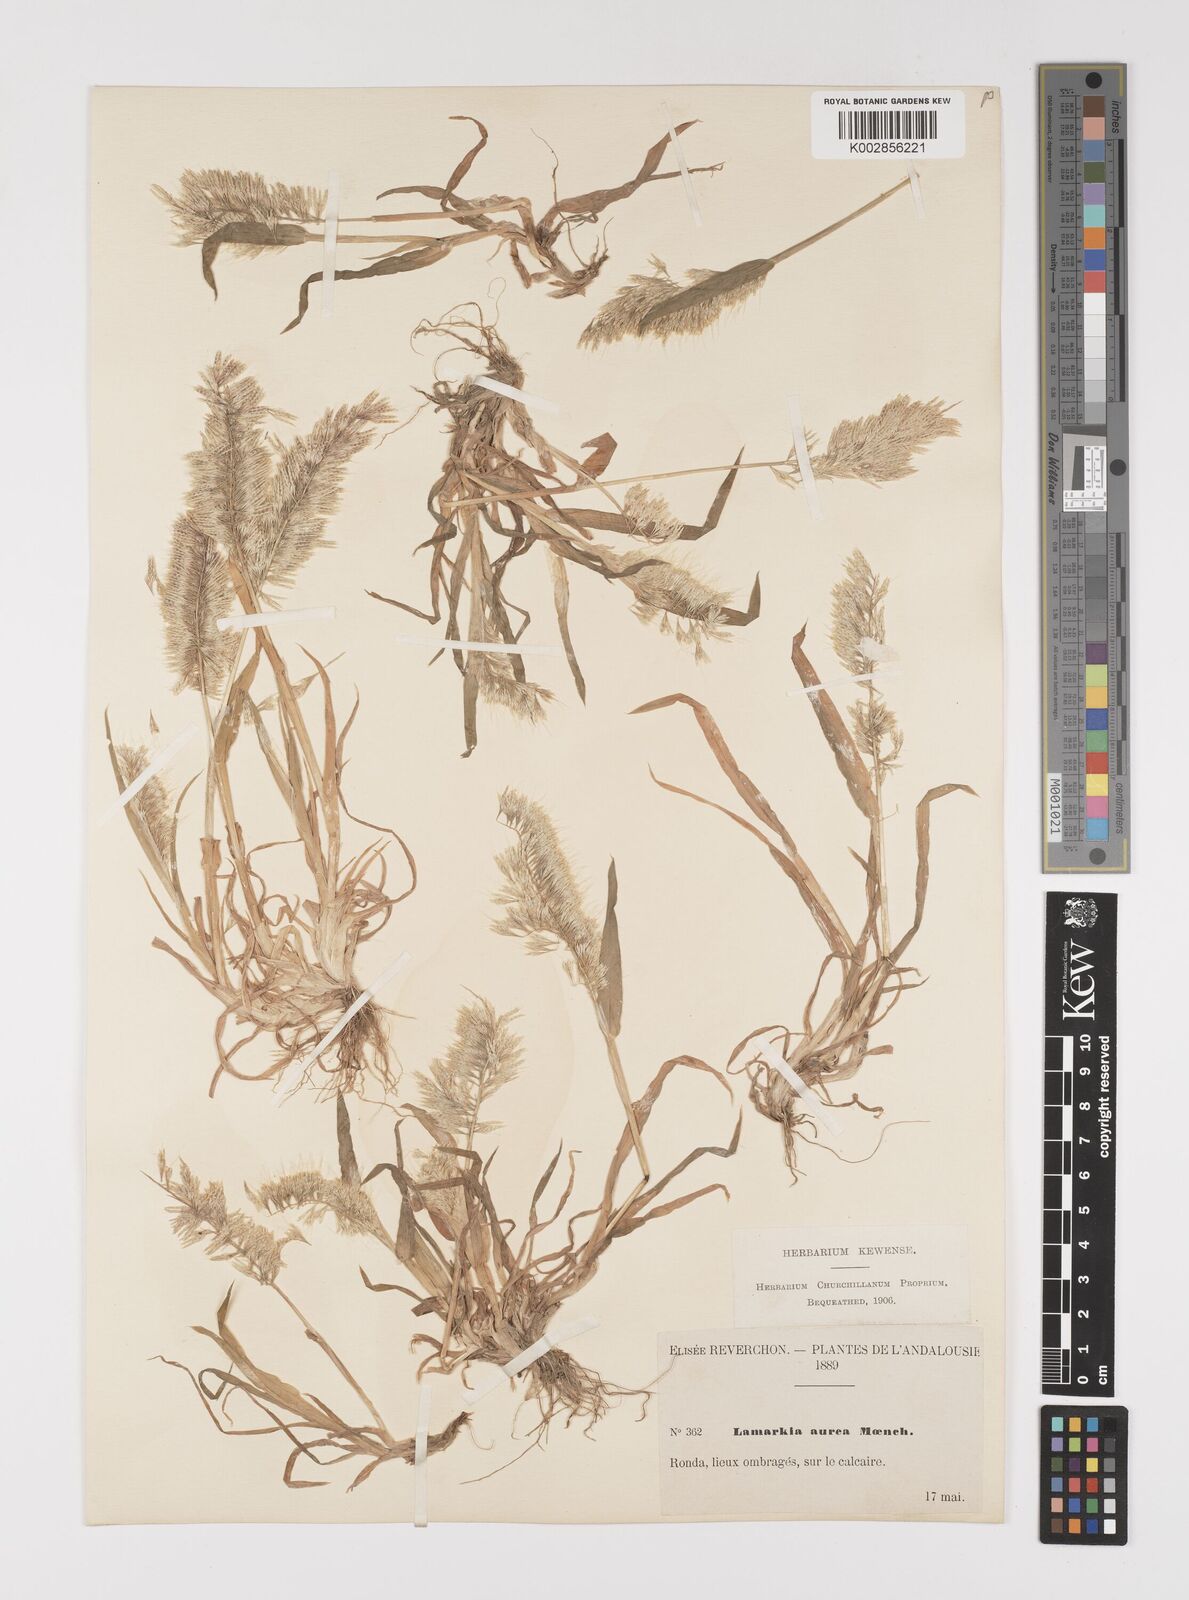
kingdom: Plantae
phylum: Tracheophyta
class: Liliopsida
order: Poales
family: Poaceae
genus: Lamarckia
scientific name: Lamarckia aurea
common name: Golden dog's-tail
